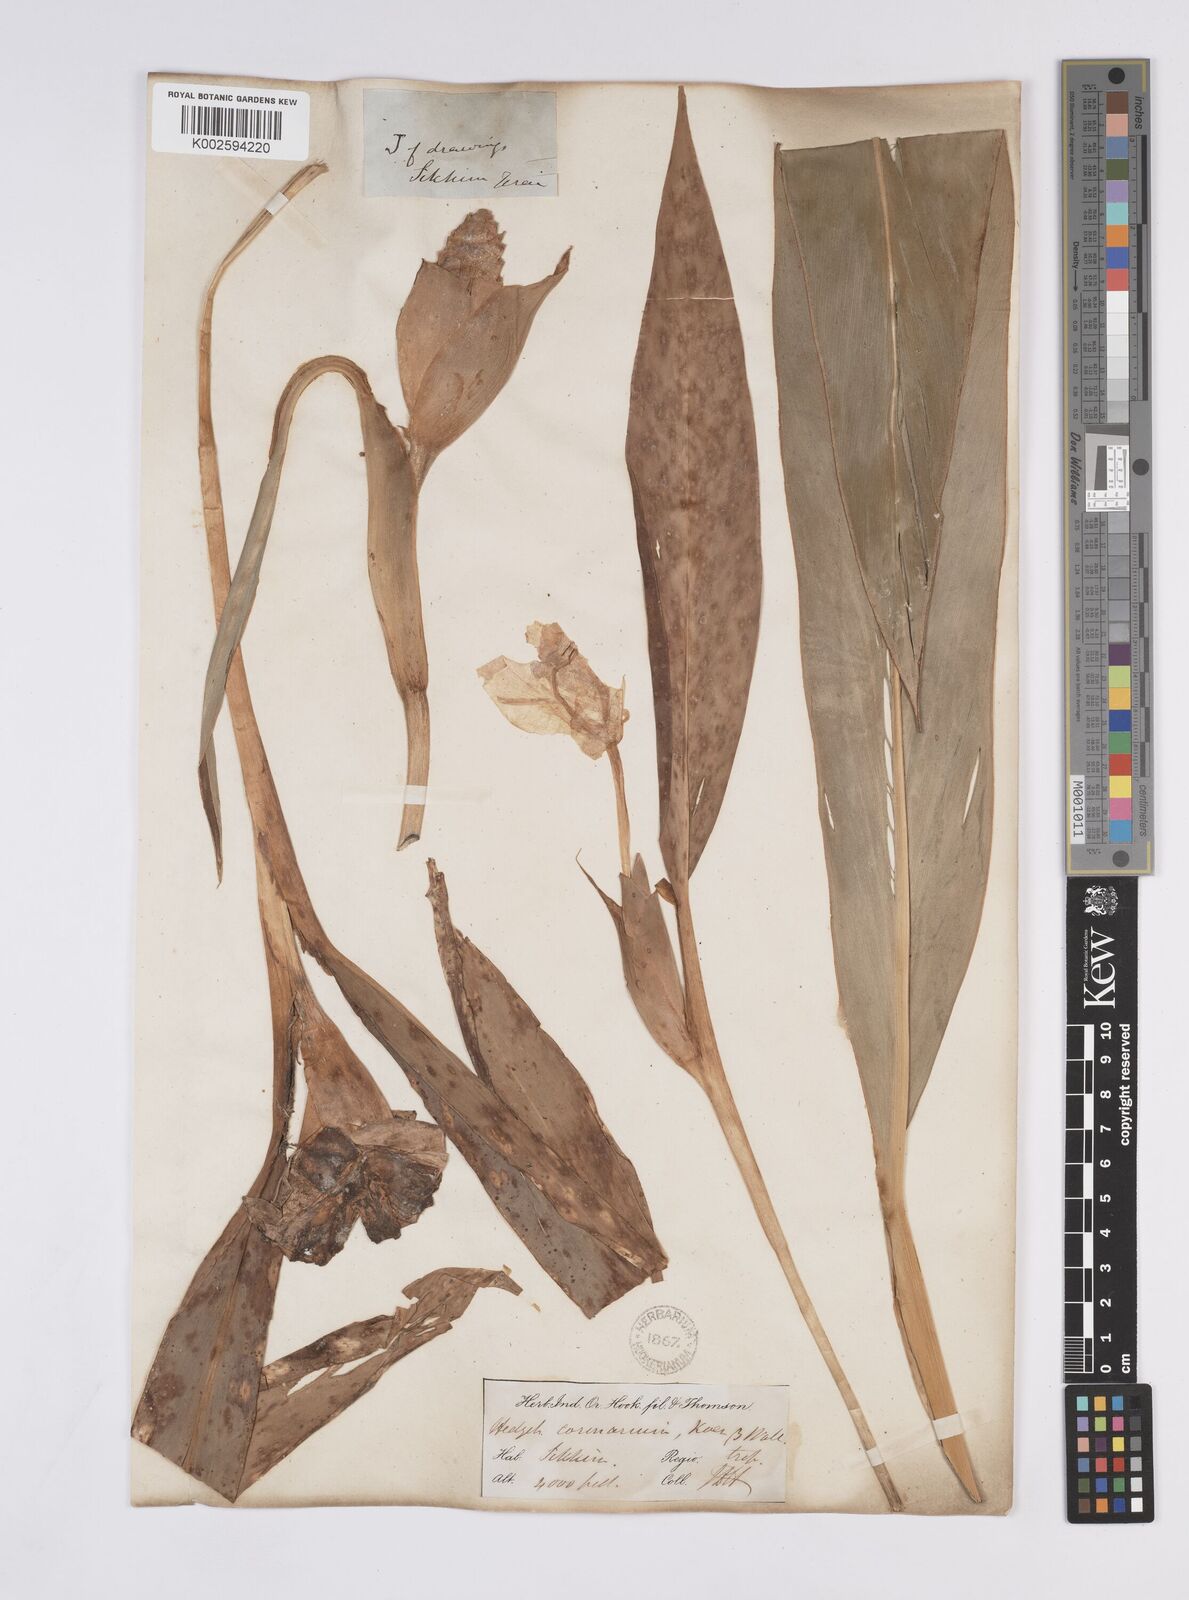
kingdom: Plantae
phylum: Tracheophyta
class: Liliopsida
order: Zingiberales
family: Zingiberaceae
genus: Hedychium
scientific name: Hedychium coronarium
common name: White garland-lily
